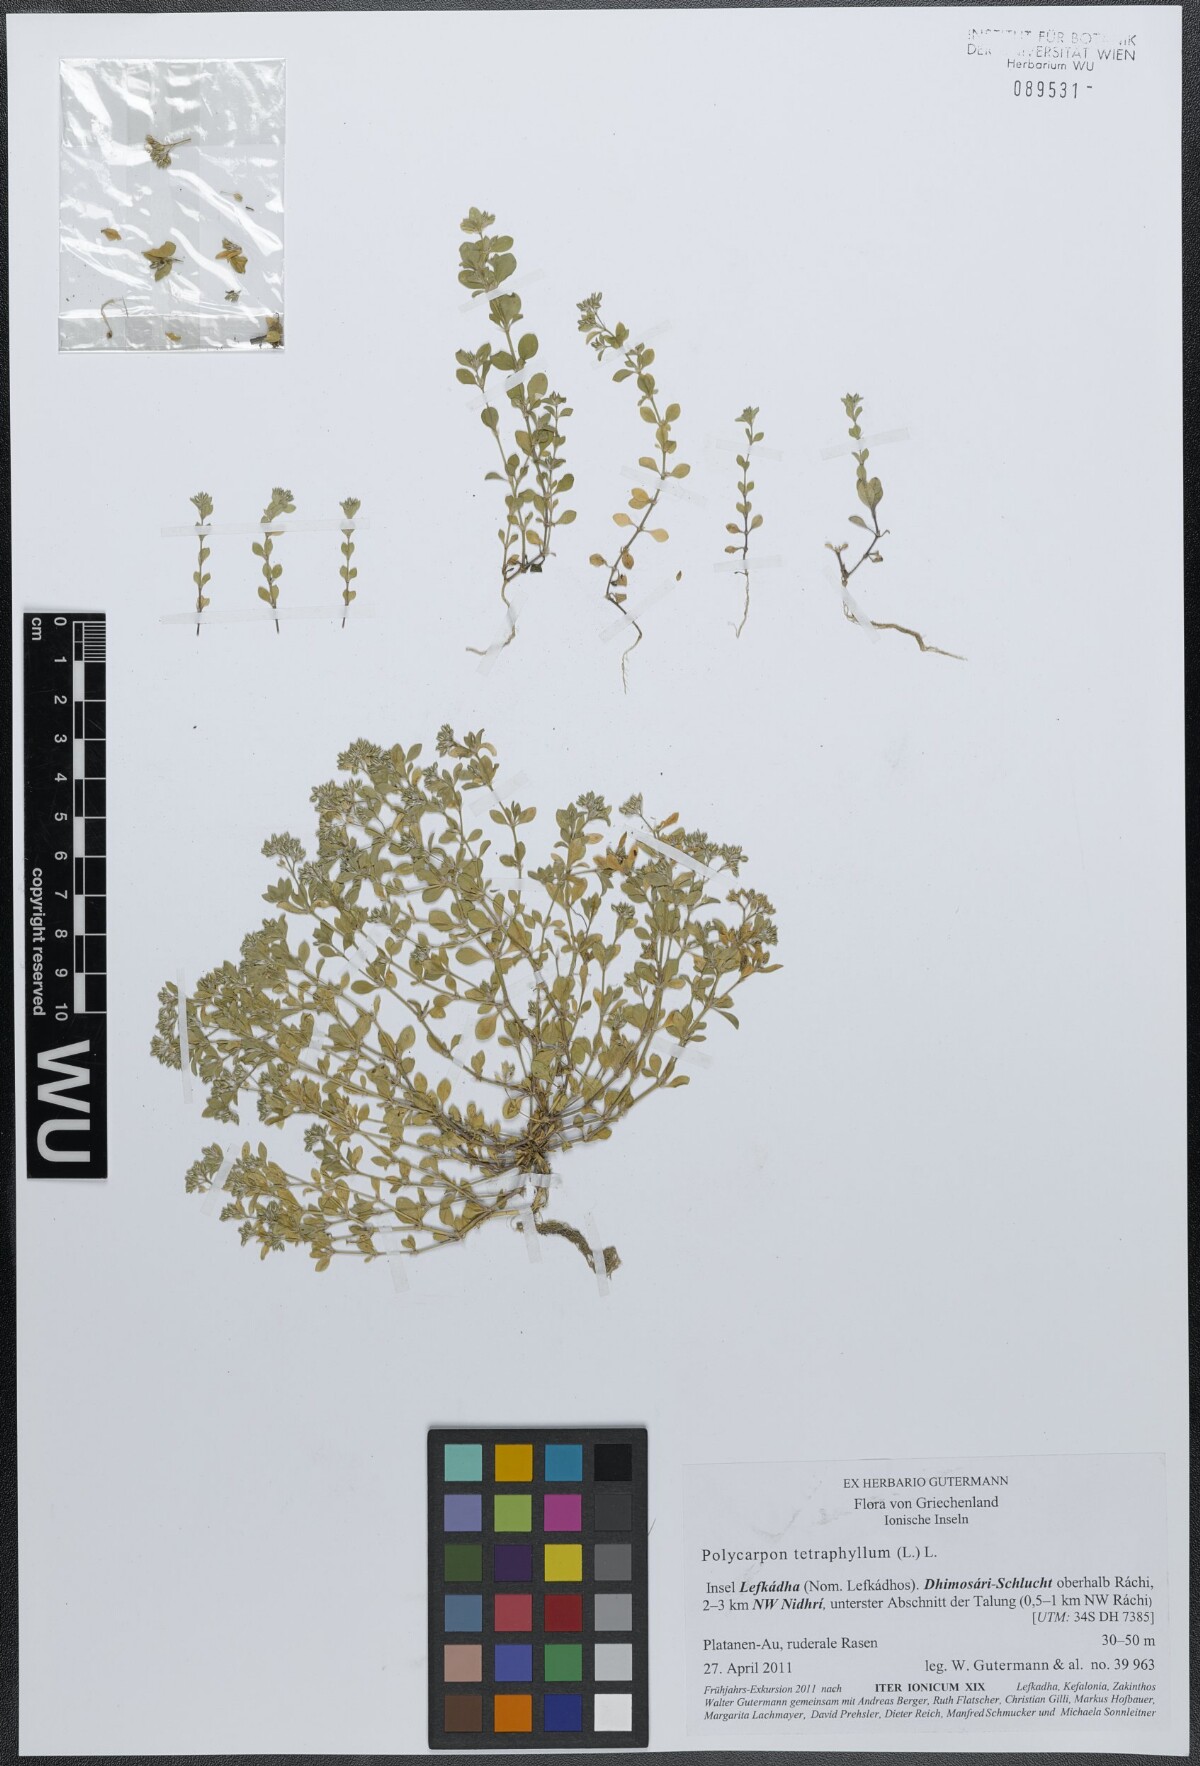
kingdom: Plantae
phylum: Tracheophyta
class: Magnoliopsida
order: Caryophyllales
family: Caryophyllaceae
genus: Polycarpon
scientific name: Polycarpon tetraphyllum
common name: Four-leaved all-seed
